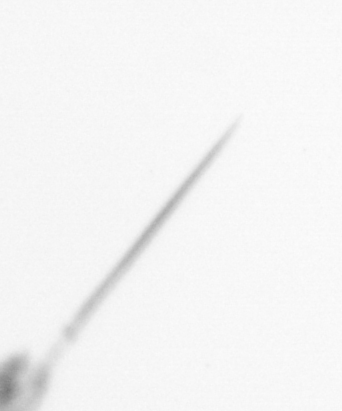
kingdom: Animalia
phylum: Chordata
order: Copelata
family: Fritillariidae
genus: Appendicularia
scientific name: Appendicularia
